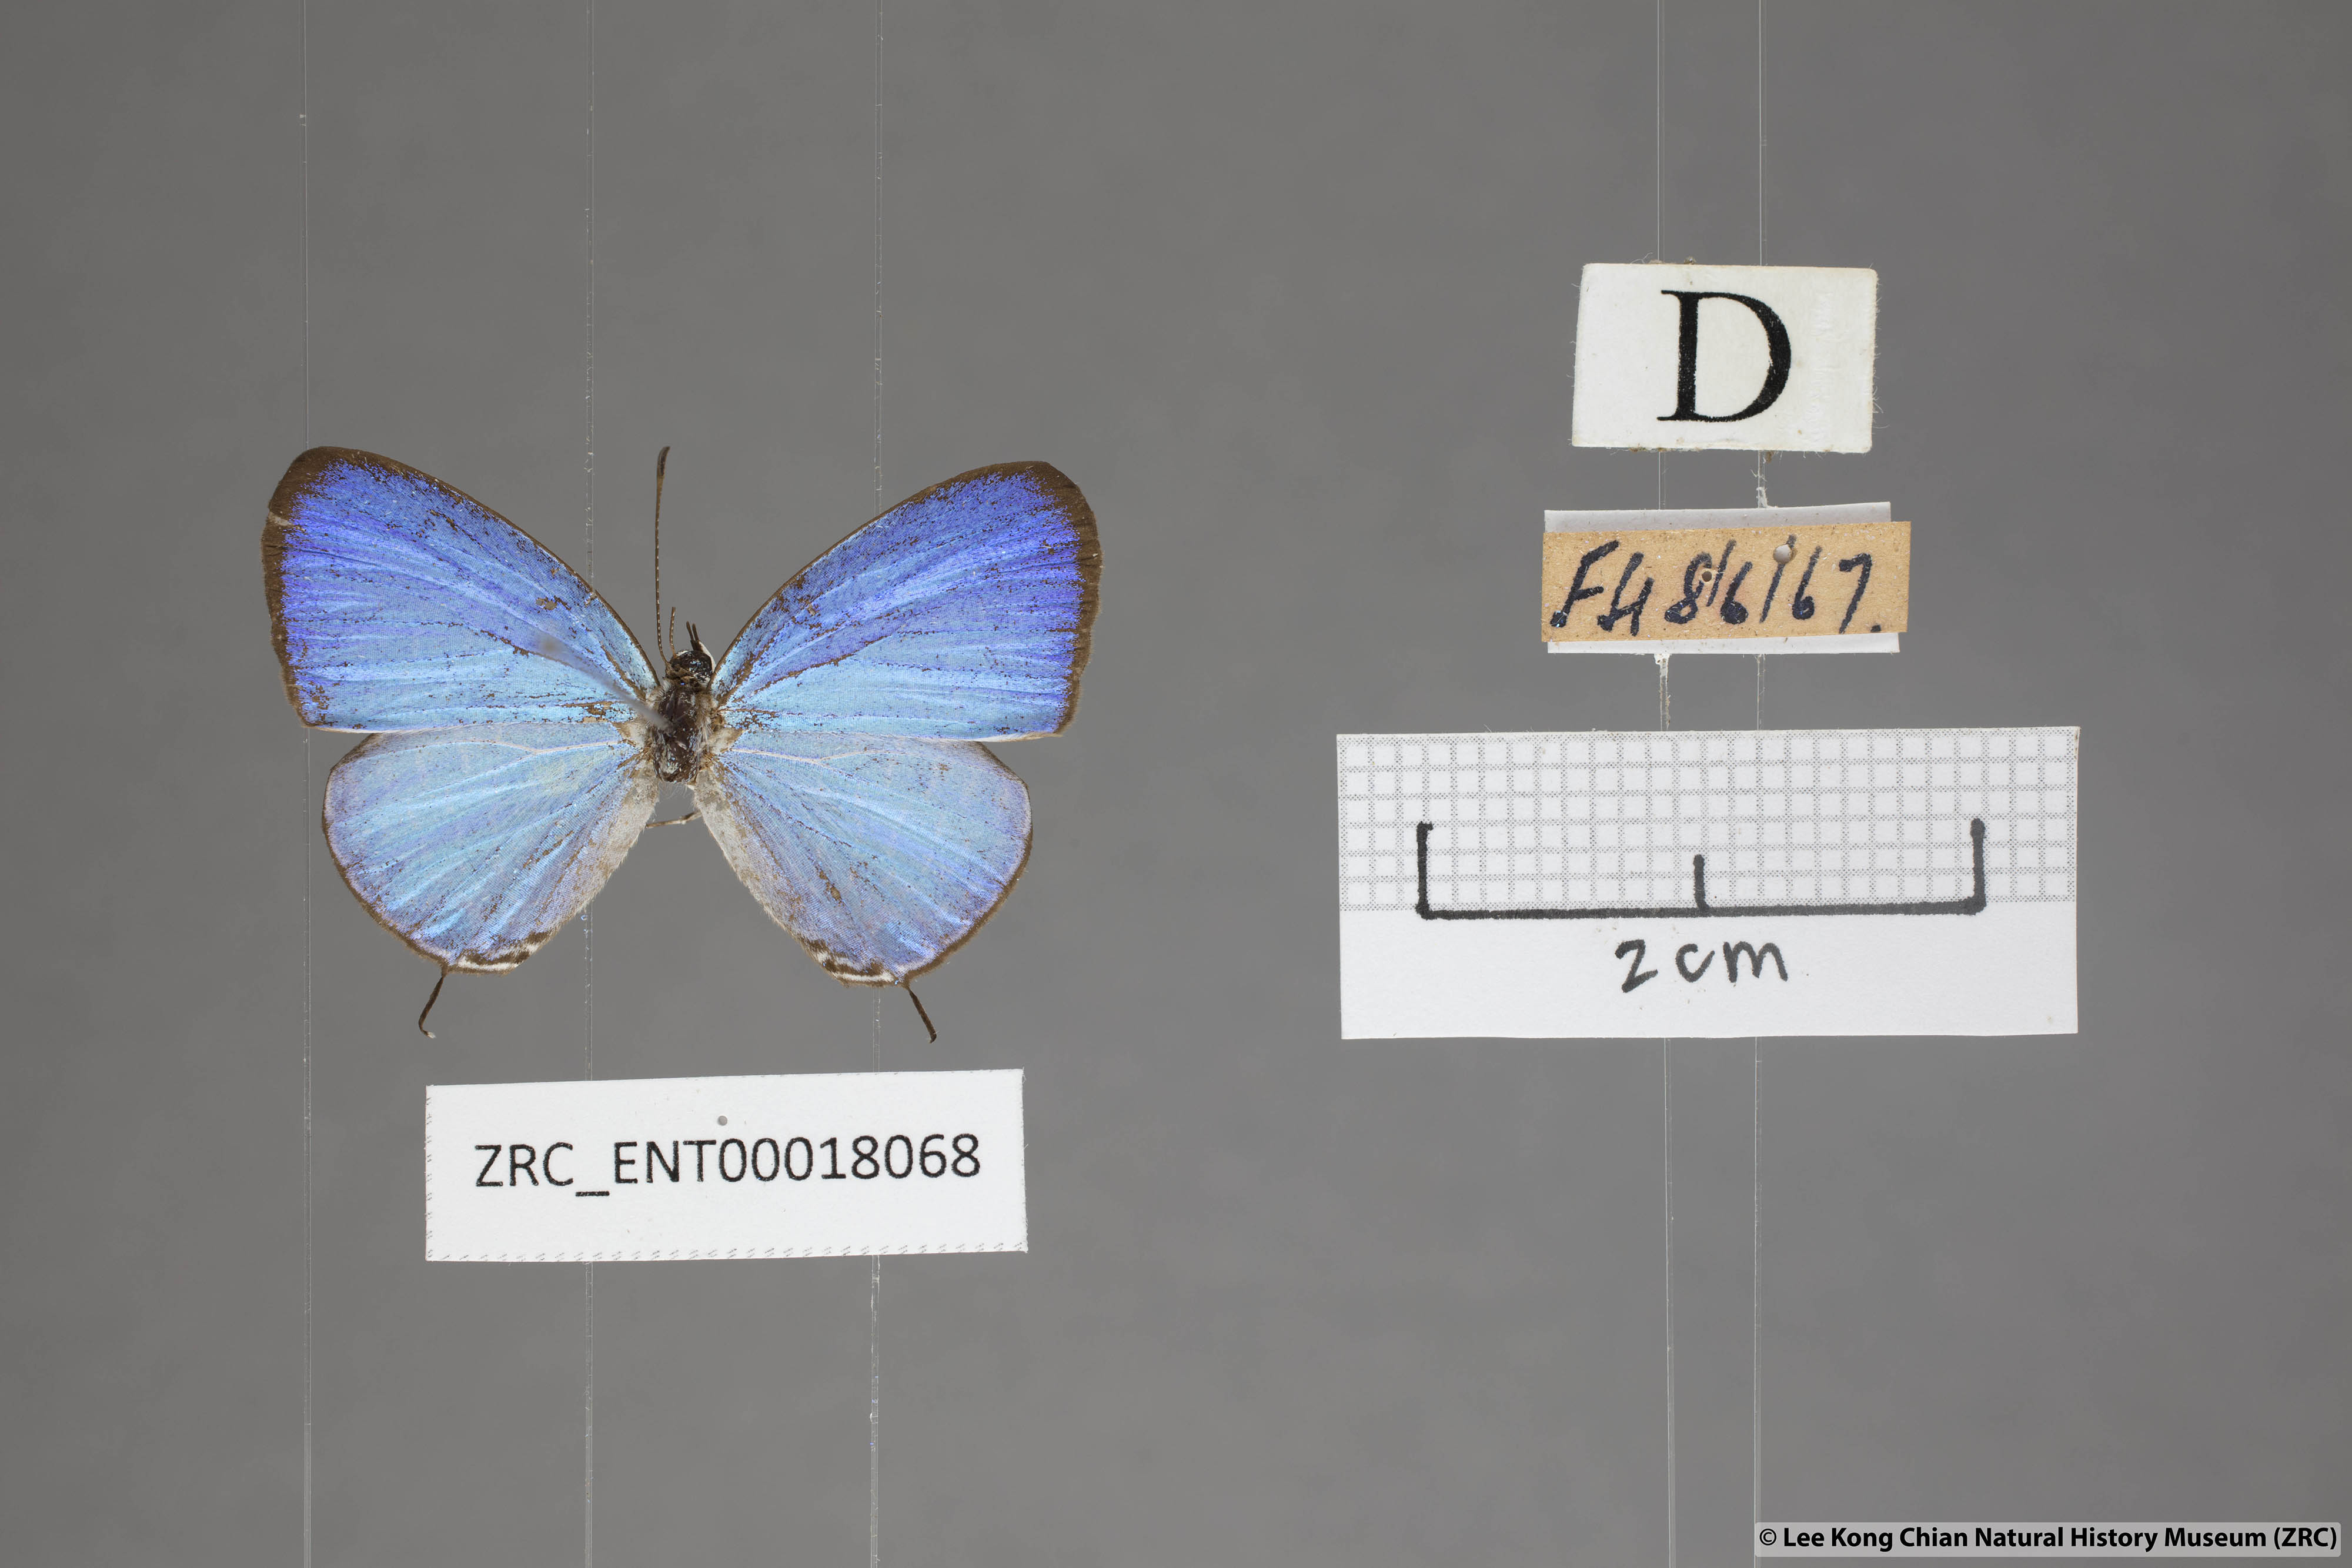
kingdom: Animalia
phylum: Arthropoda
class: Insecta
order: Lepidoptera
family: Lycaenidae
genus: Jamides
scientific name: Jamides caerulea
